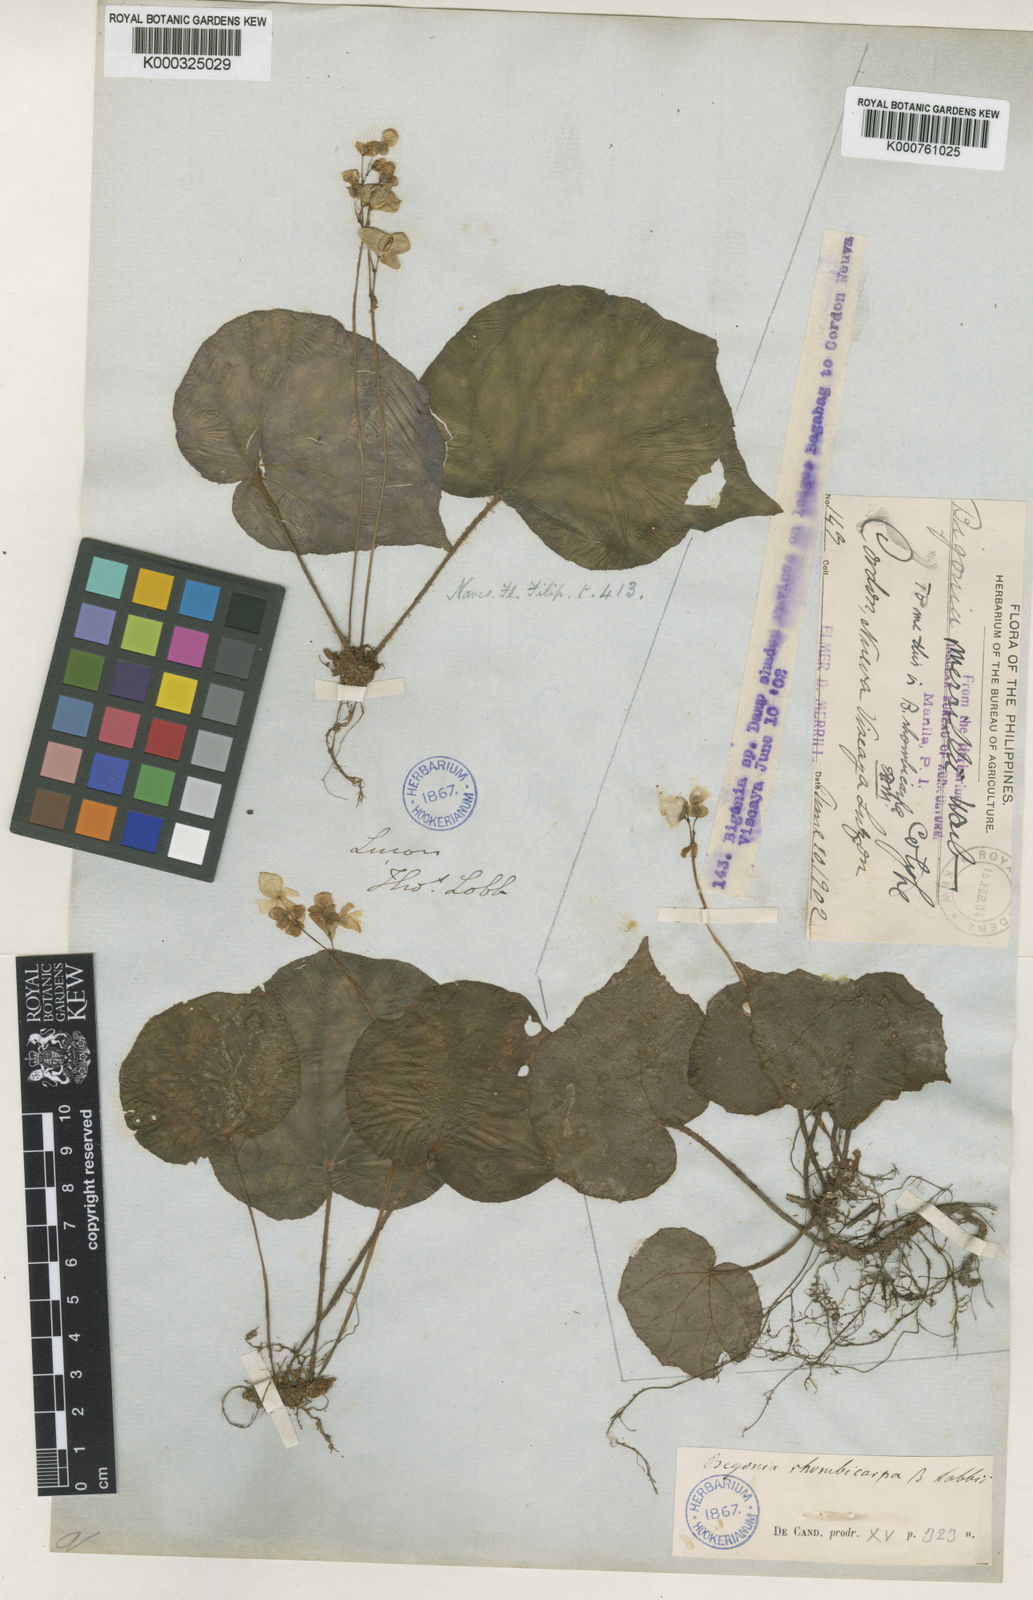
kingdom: Plantae
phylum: Tracheophyta
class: Magnoliopsida
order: Cucurbitales
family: Begoniaceae
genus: Begonia
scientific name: Begonia nigritarum
